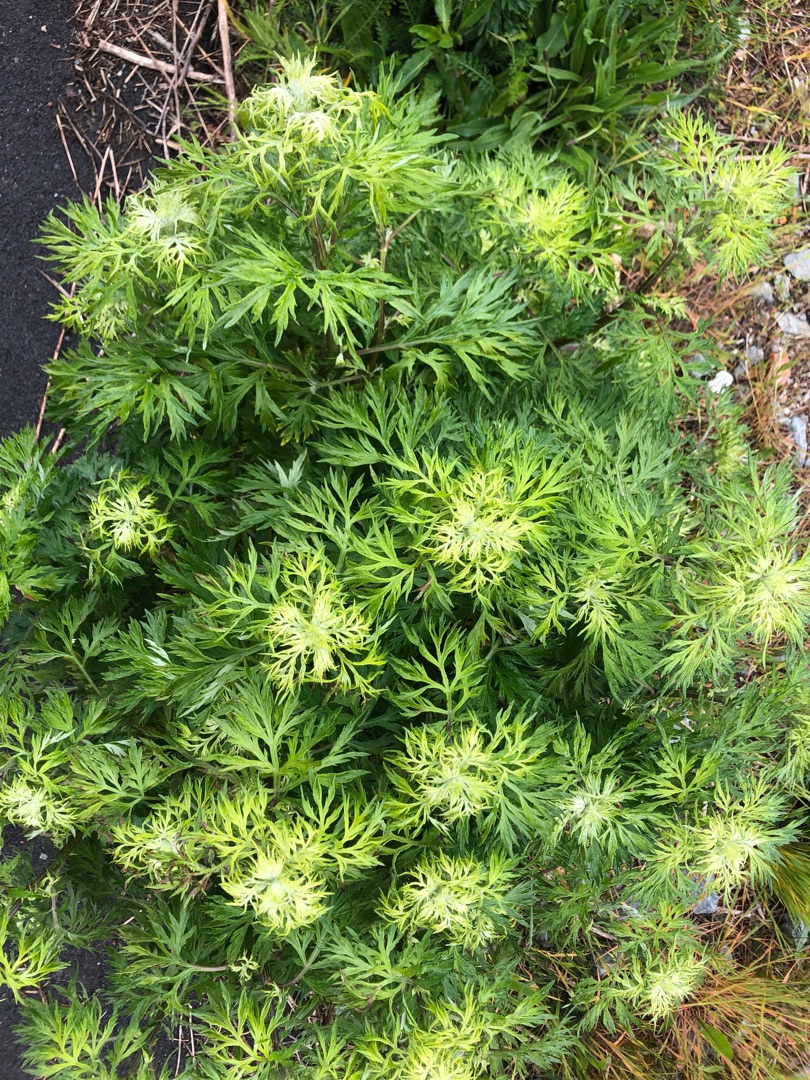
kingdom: Plantae
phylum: Tracheophyta
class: Magnoliopsida
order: Asterales
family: Asteraceae
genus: Artemisia
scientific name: Artemisia vulgaris
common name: Grå-bynke
